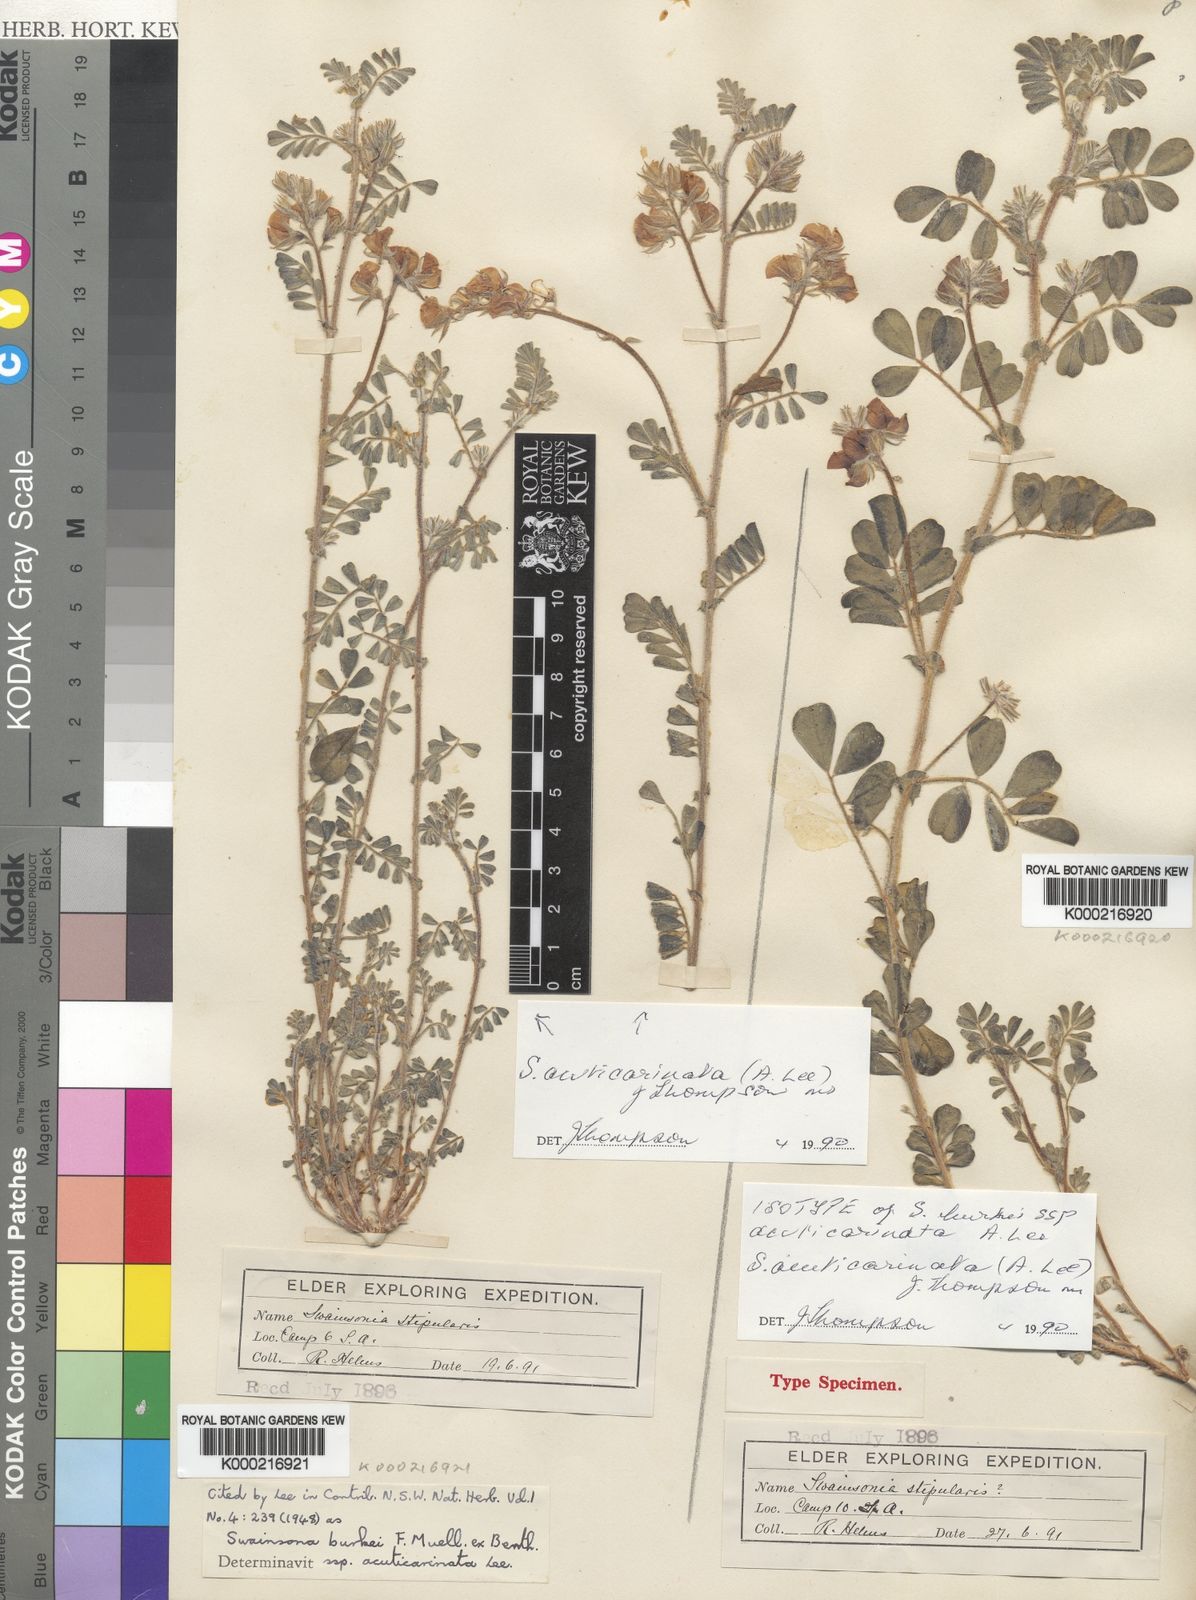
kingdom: Plantae
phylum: Tracheophyta
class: Magnoliopsida
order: Fabales
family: Fabaceae
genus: Swainsona
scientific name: Swainsona acuticarinata
